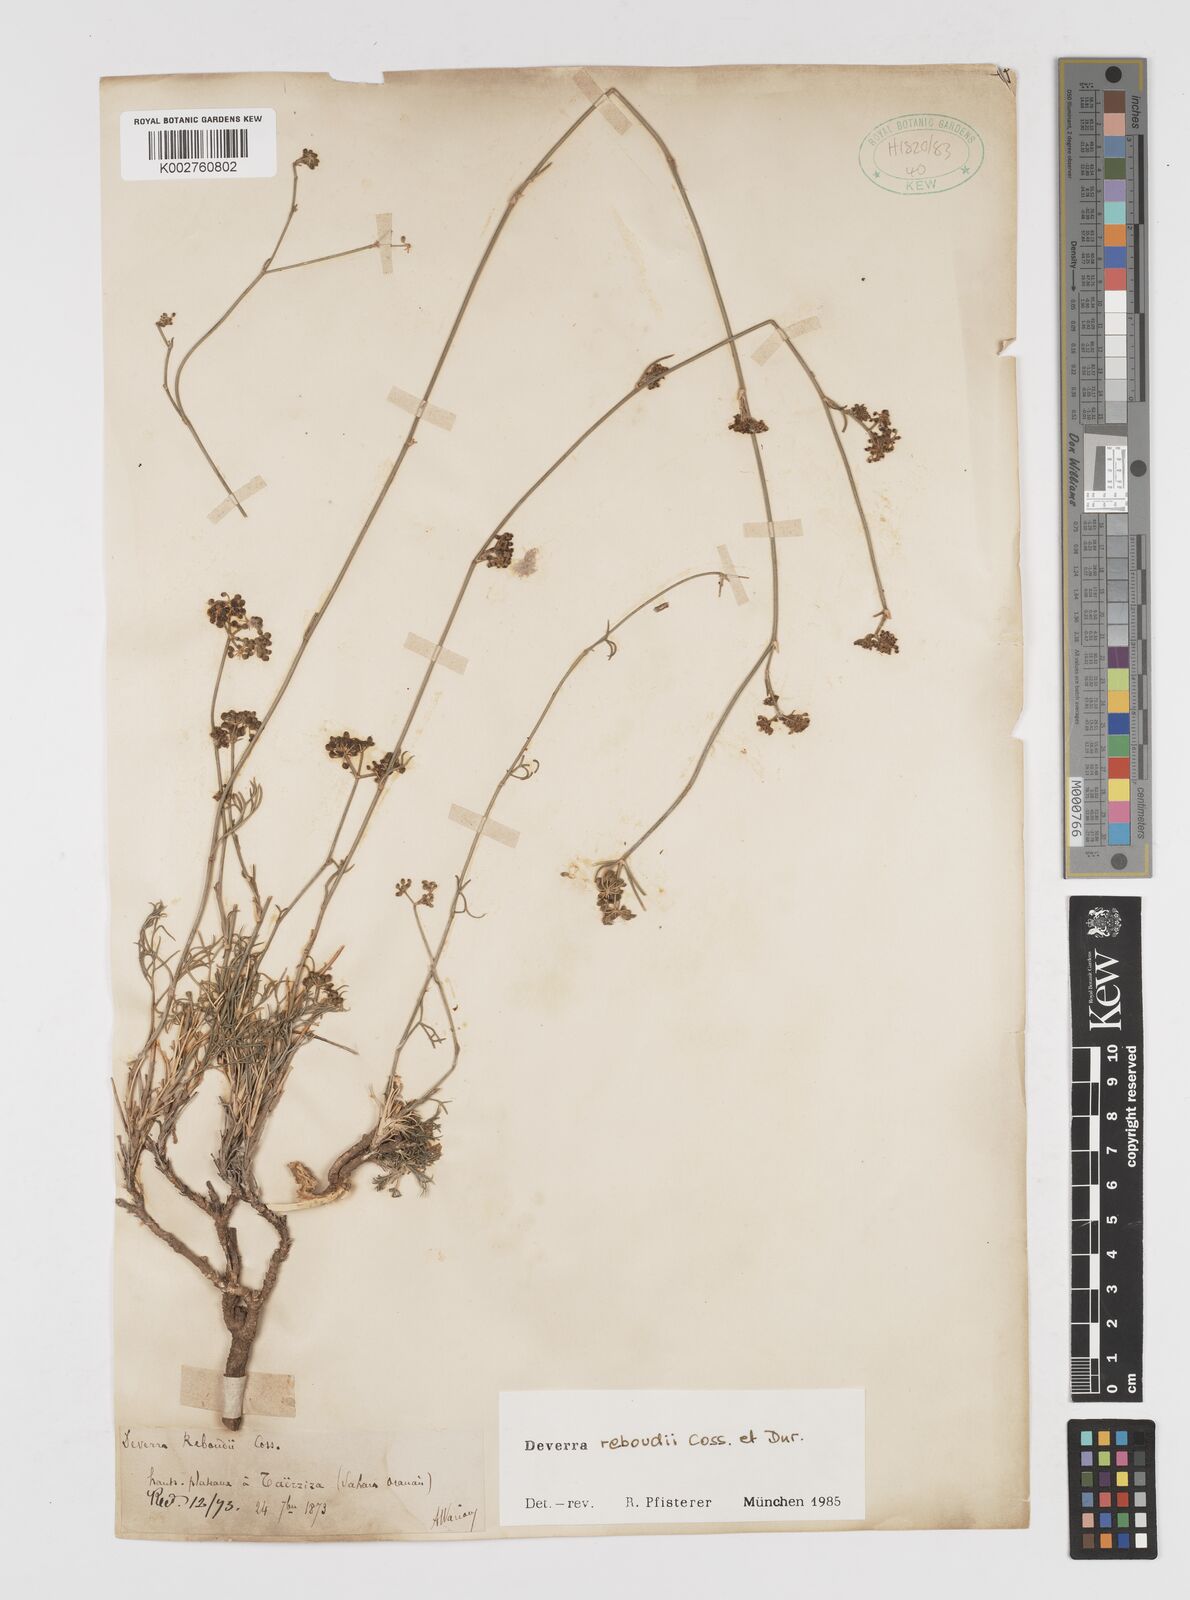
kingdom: Plantae
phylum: Tracheophyta
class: Magnoliopsida
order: Apiales
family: Apiaceae
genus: Deverra
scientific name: Deverra reboudii
